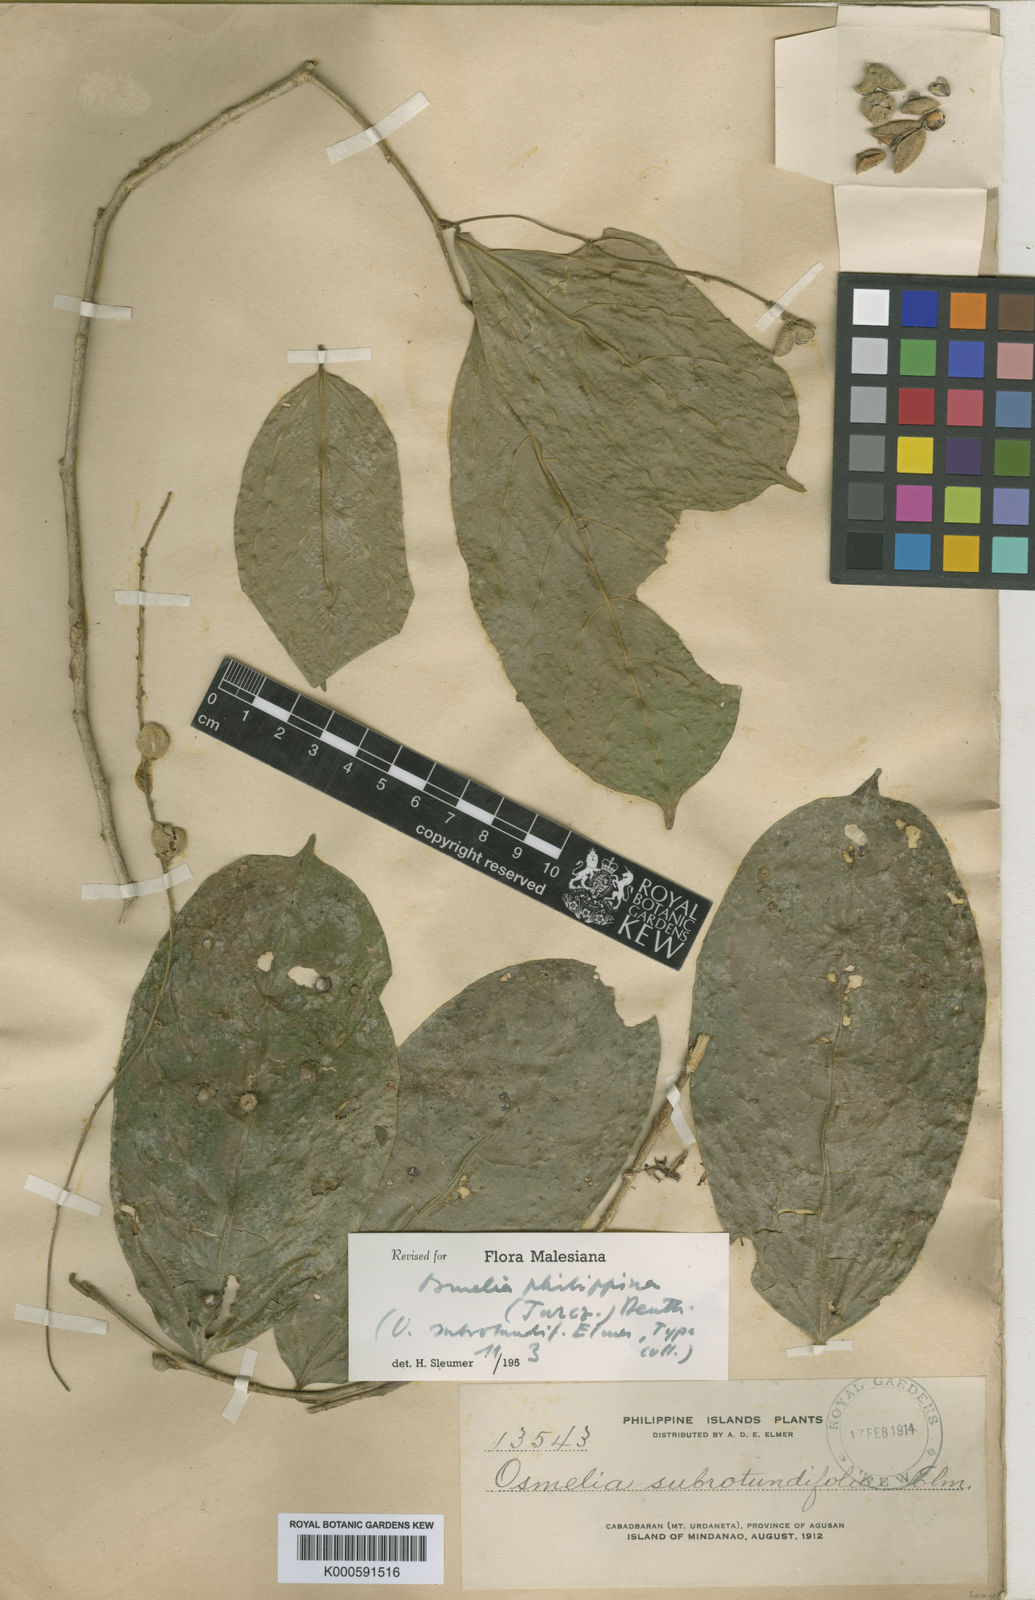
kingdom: Plantae
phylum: Tracheophyta
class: Magnoliopsida
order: Malpighiales
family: Salicaceae
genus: Osmelia
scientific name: Osmelia
